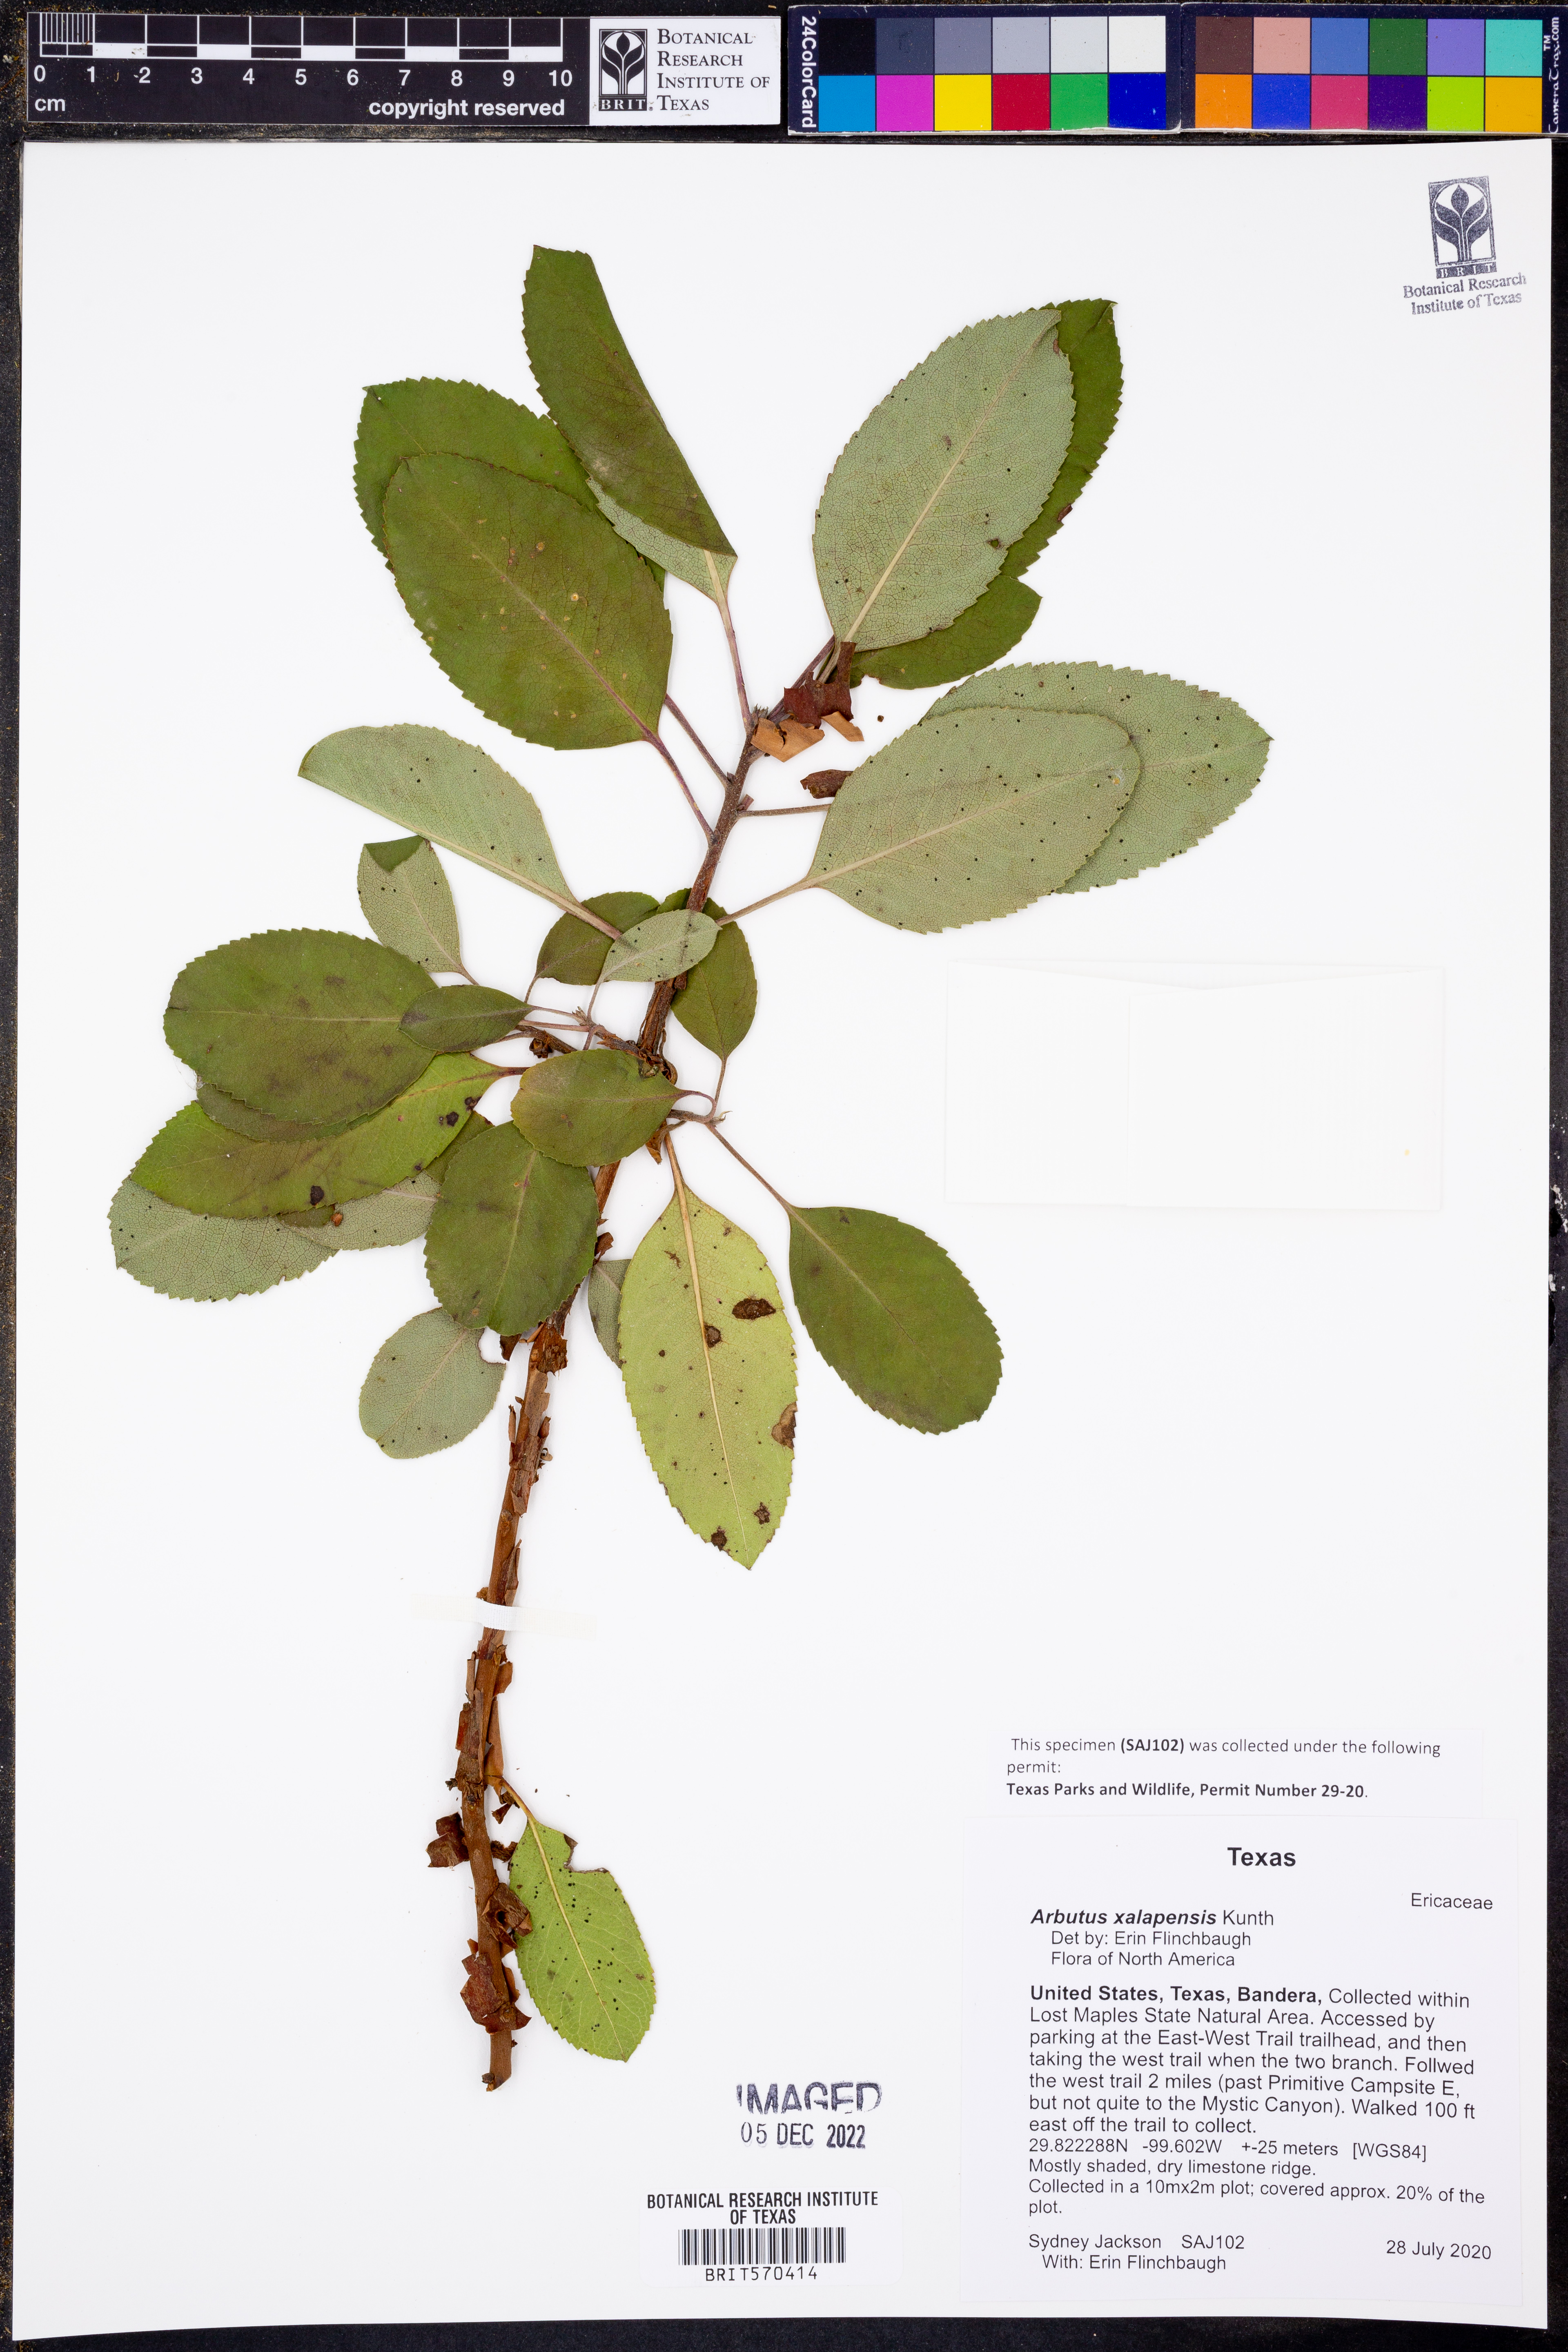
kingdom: Plantae
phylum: Tracheophyta
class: Magnoliopsida
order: Ericales
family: Ericaceae
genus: Arbutus
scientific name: Arbutus xalapensis
